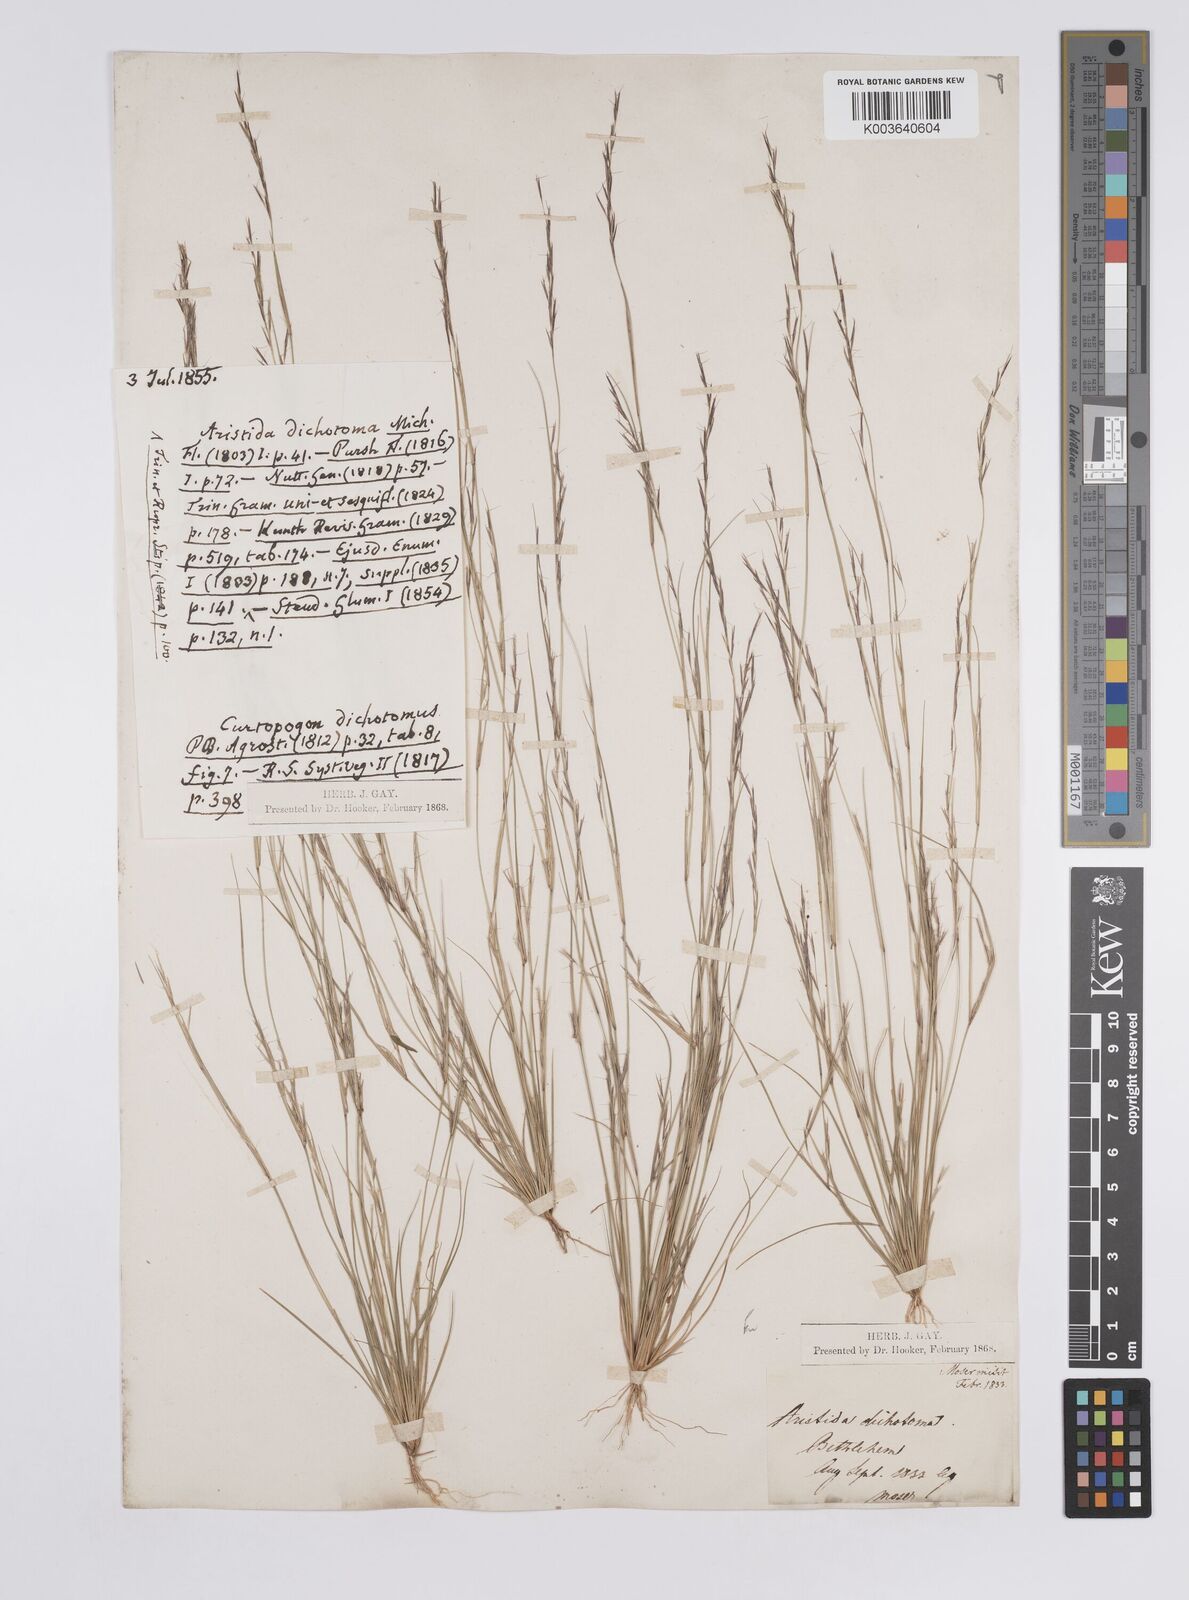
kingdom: Plantae
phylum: Tracheophyta
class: Liliopsida
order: Poales
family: Poaceae
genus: Aristida
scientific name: Aristida dichotoma
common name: Churchmouse three-awn
